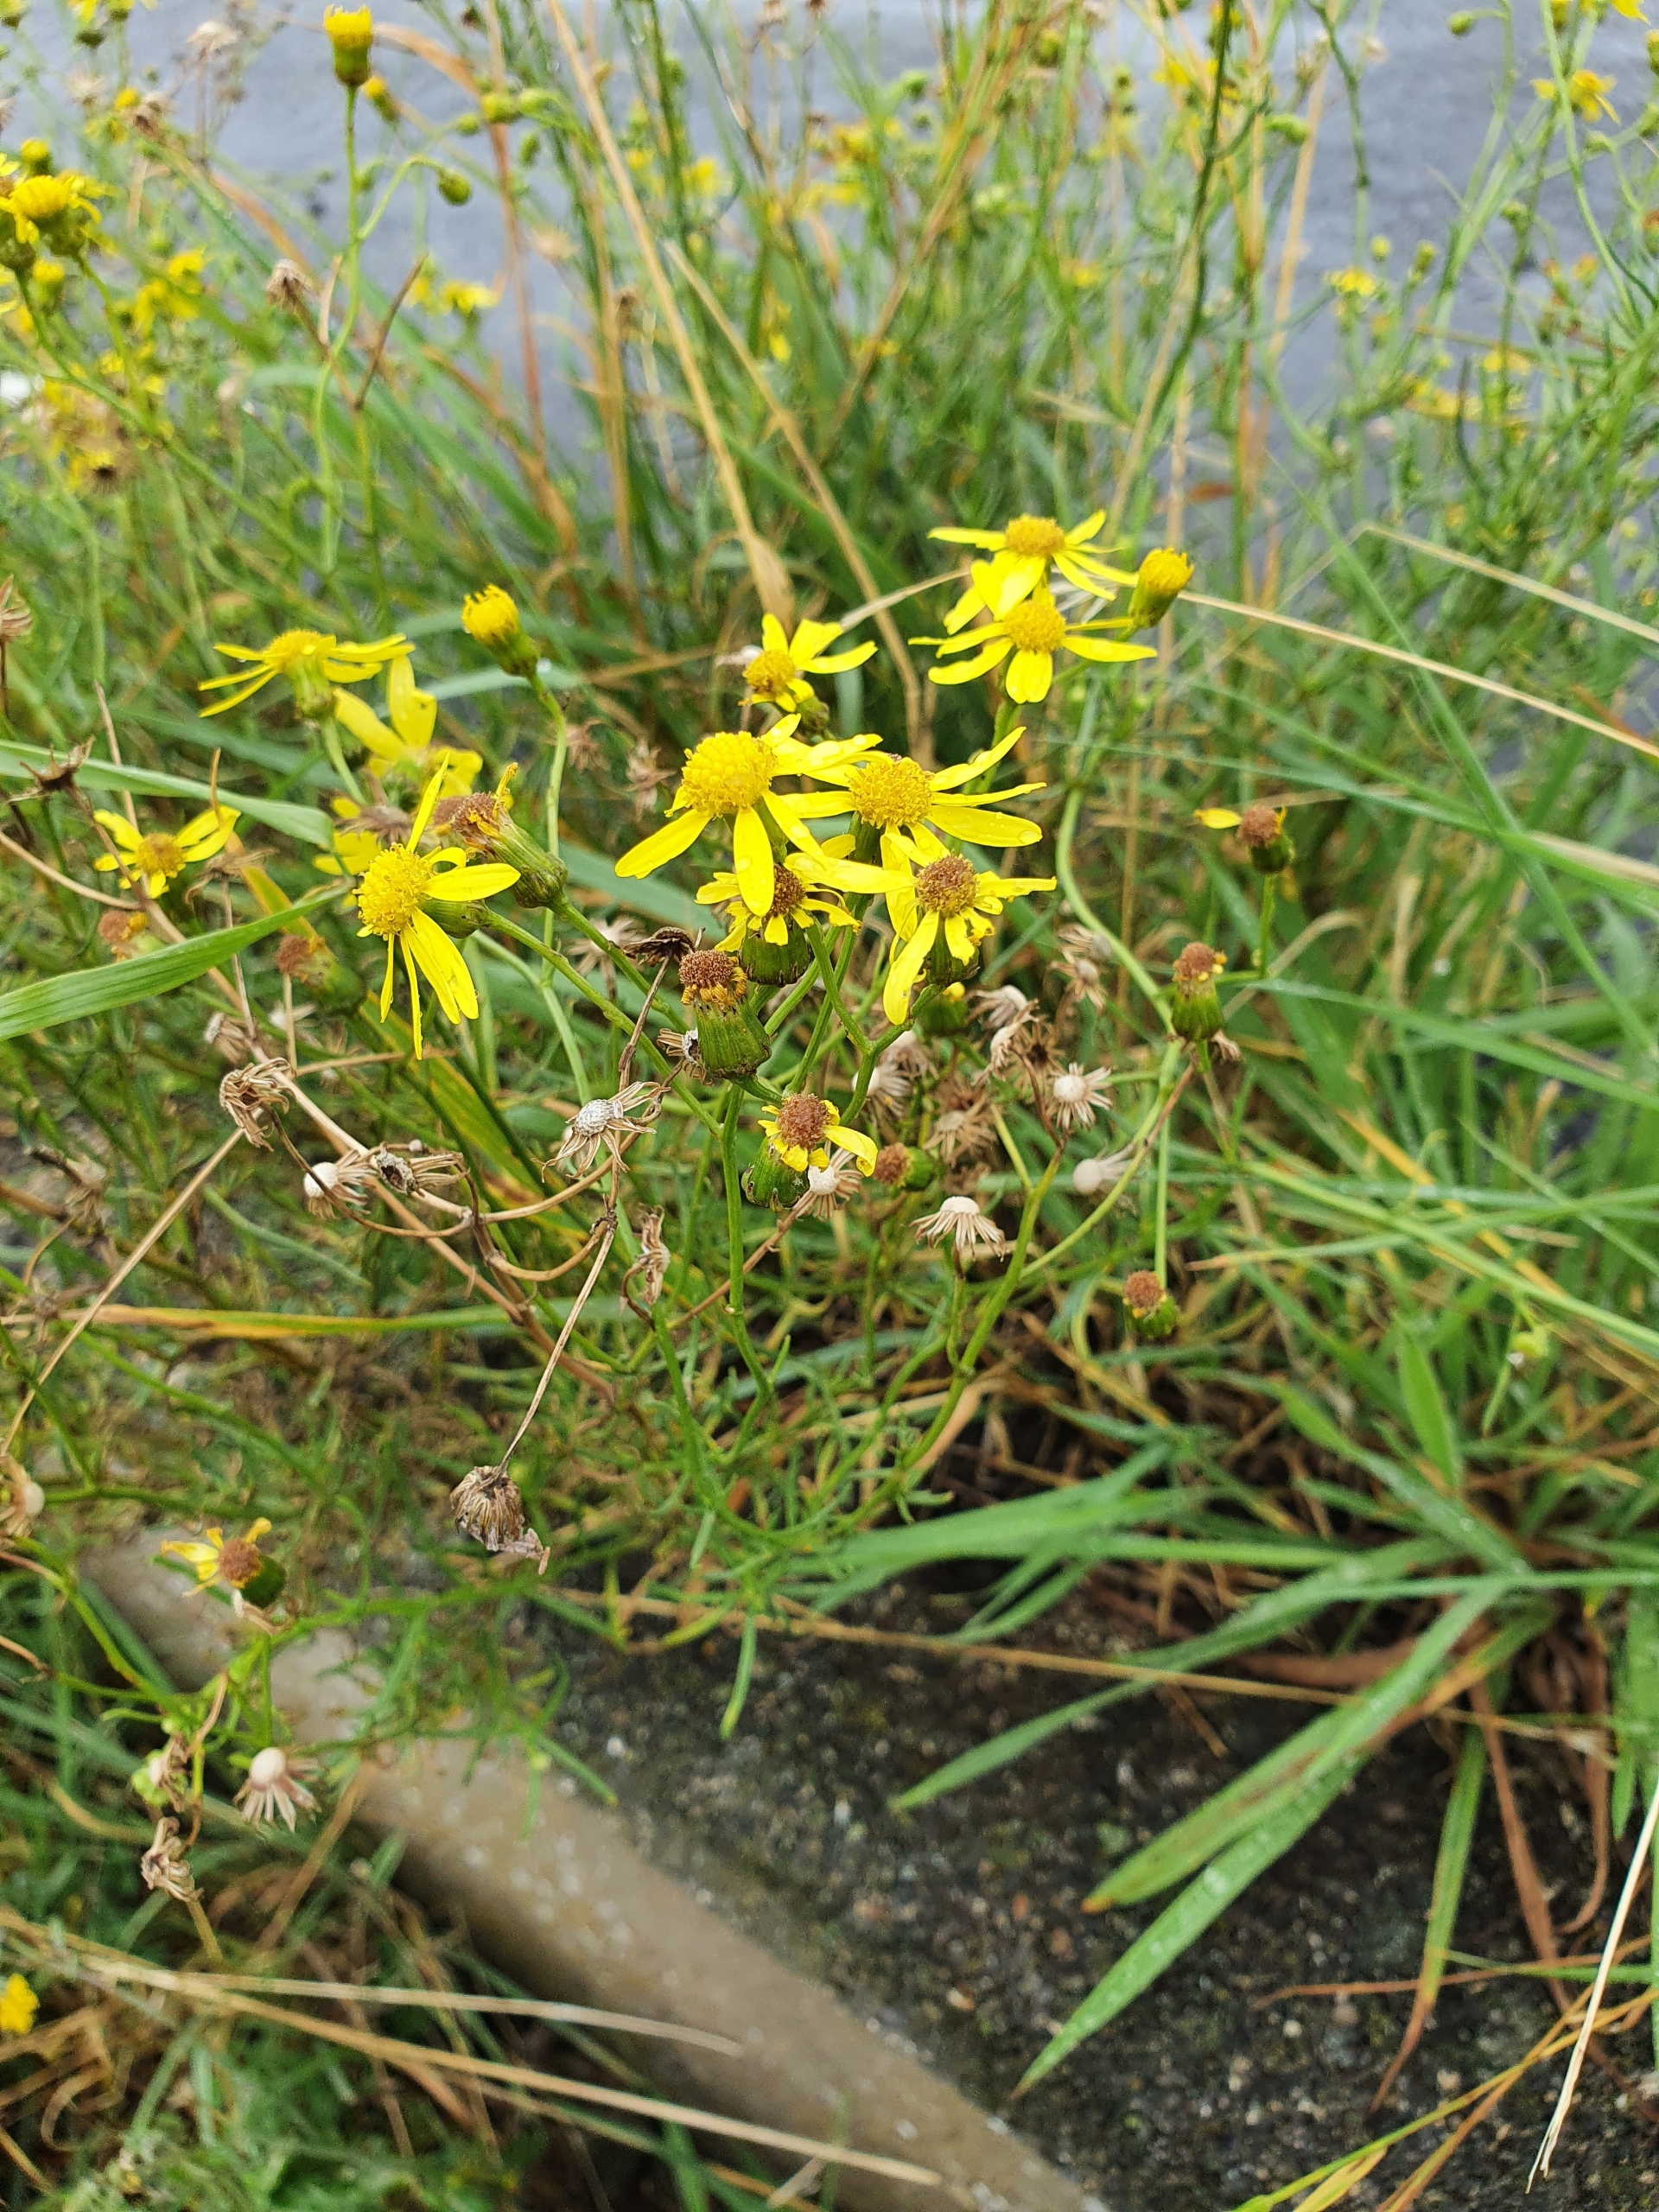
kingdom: Plantae
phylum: Tracheophyta
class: Magnoliopsida
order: Asterales
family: Asteraceae
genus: Senecio
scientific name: Senecio inaequidens
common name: Smalbladet brandbæger
